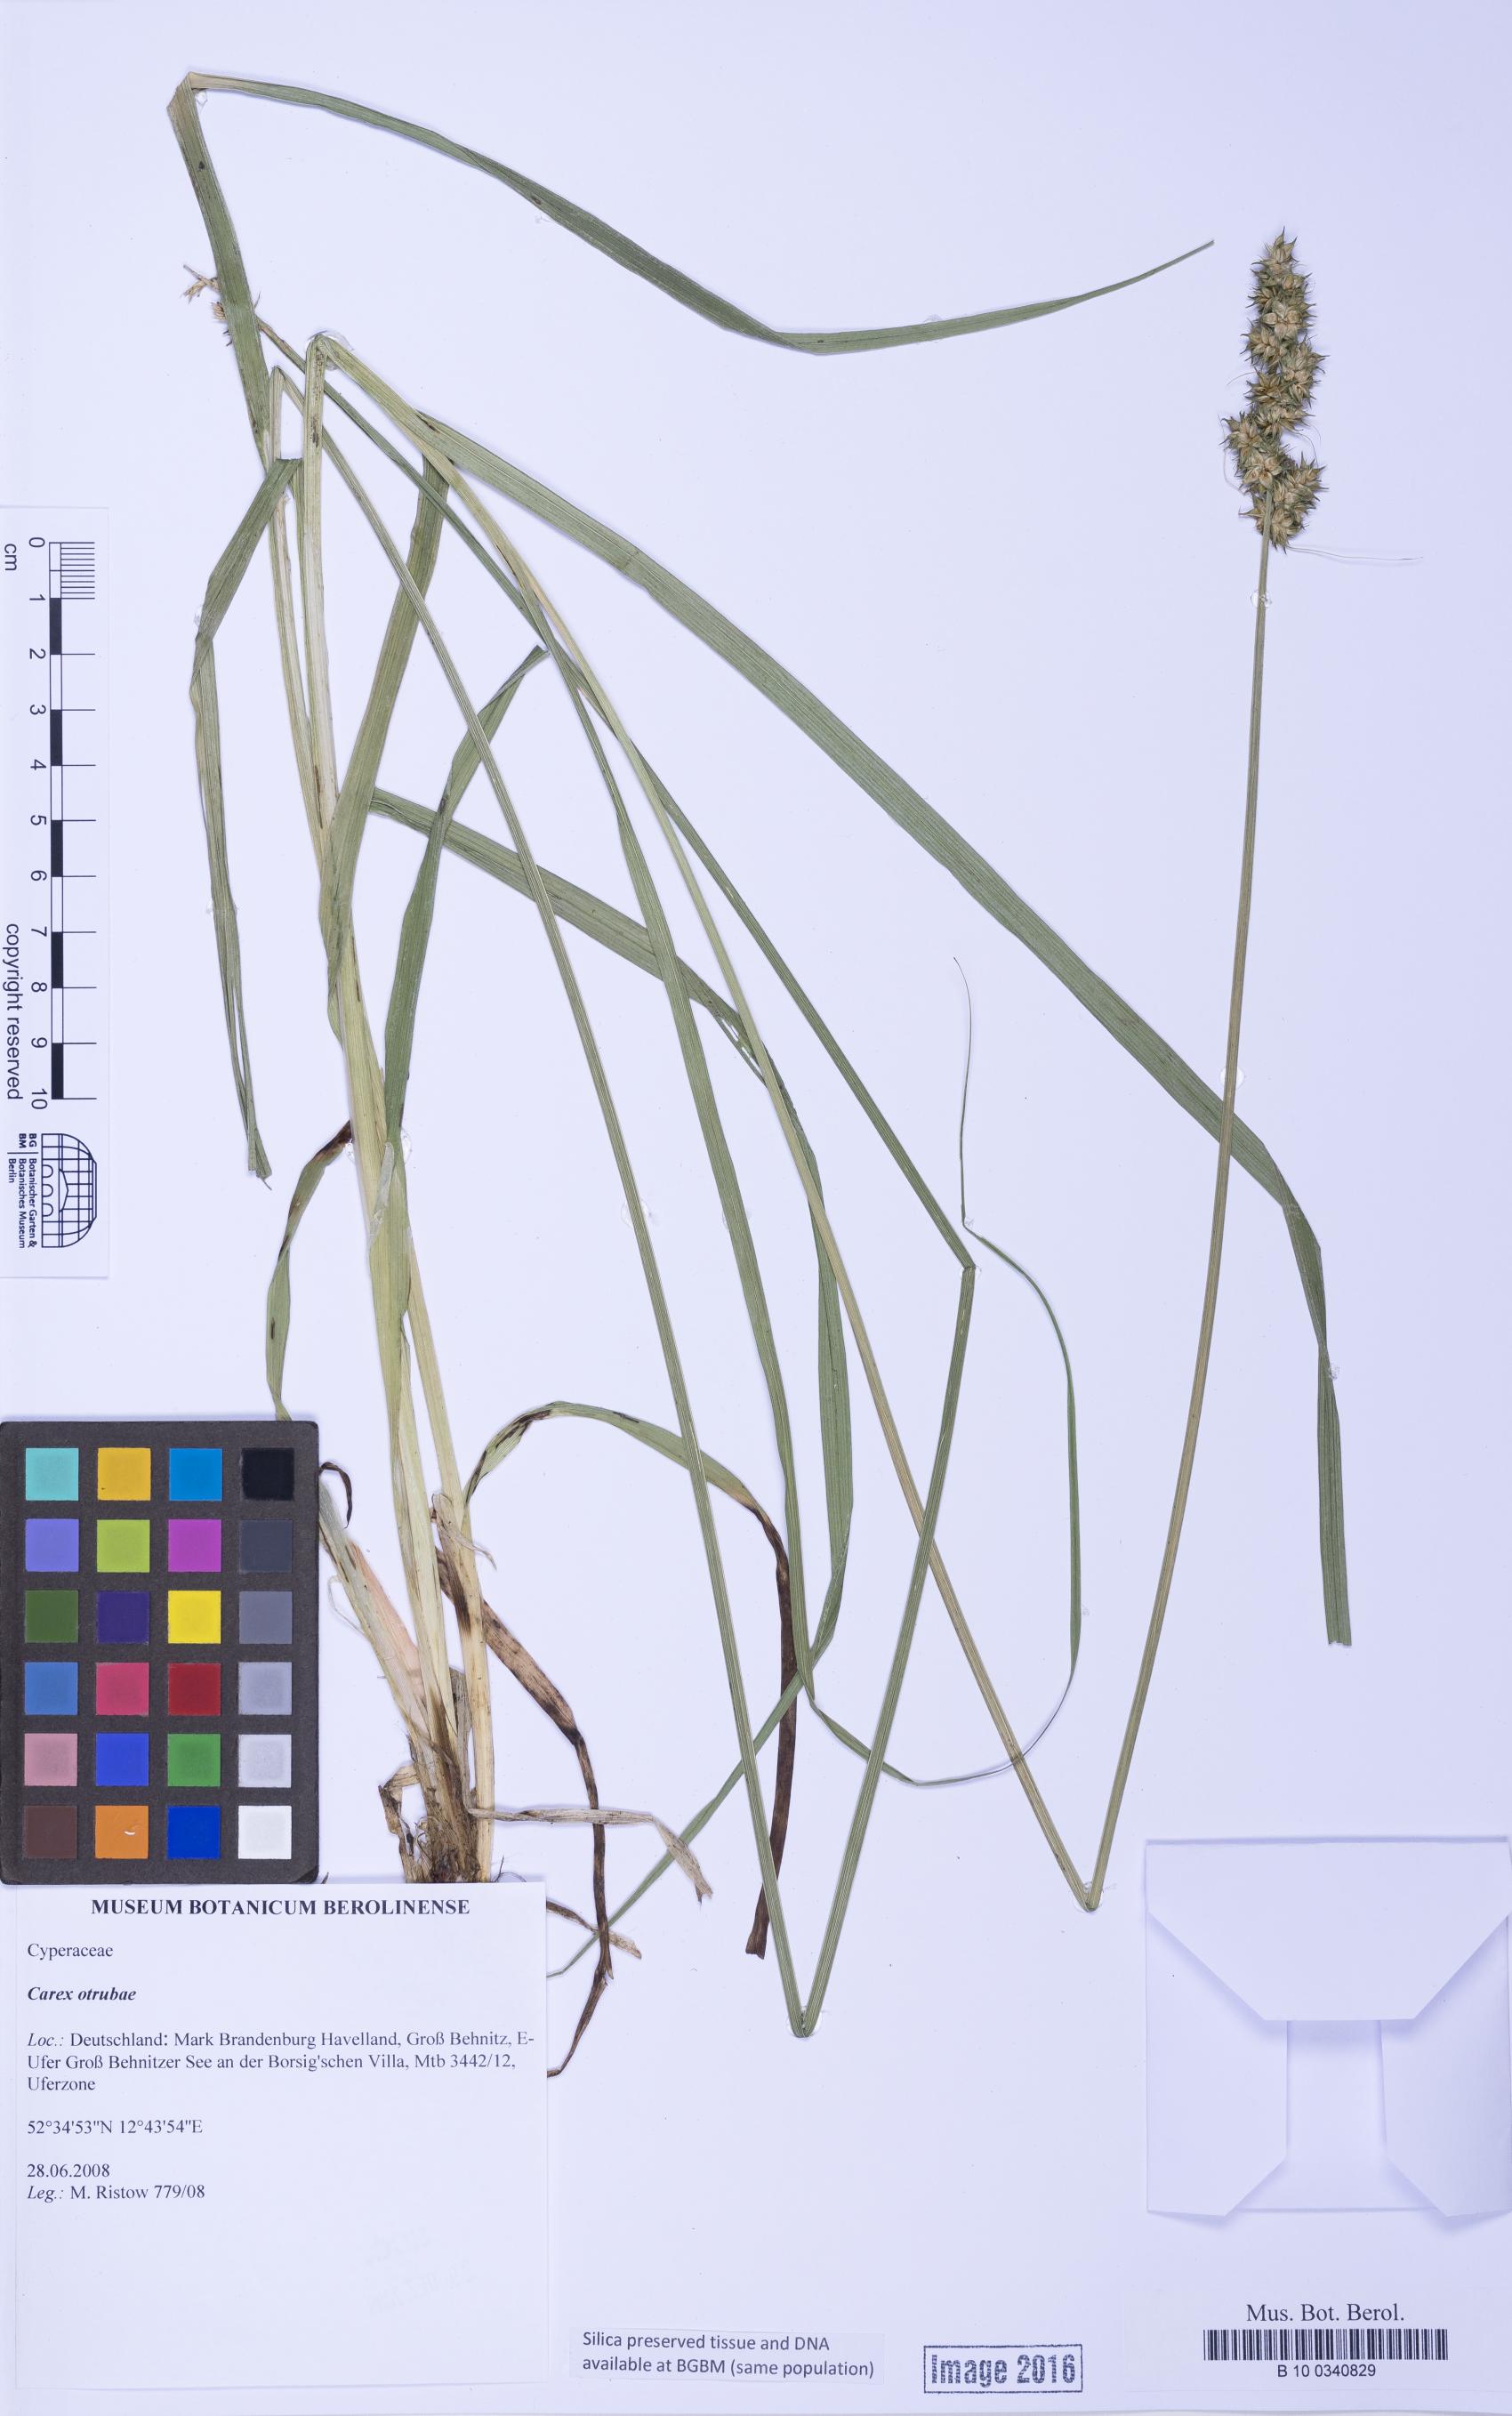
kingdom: Plantae
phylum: Tracheophyta
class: Liliopsida
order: Poales
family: Cyperaceae
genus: Carex
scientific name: Carex otrubae
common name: False fox-sedge
